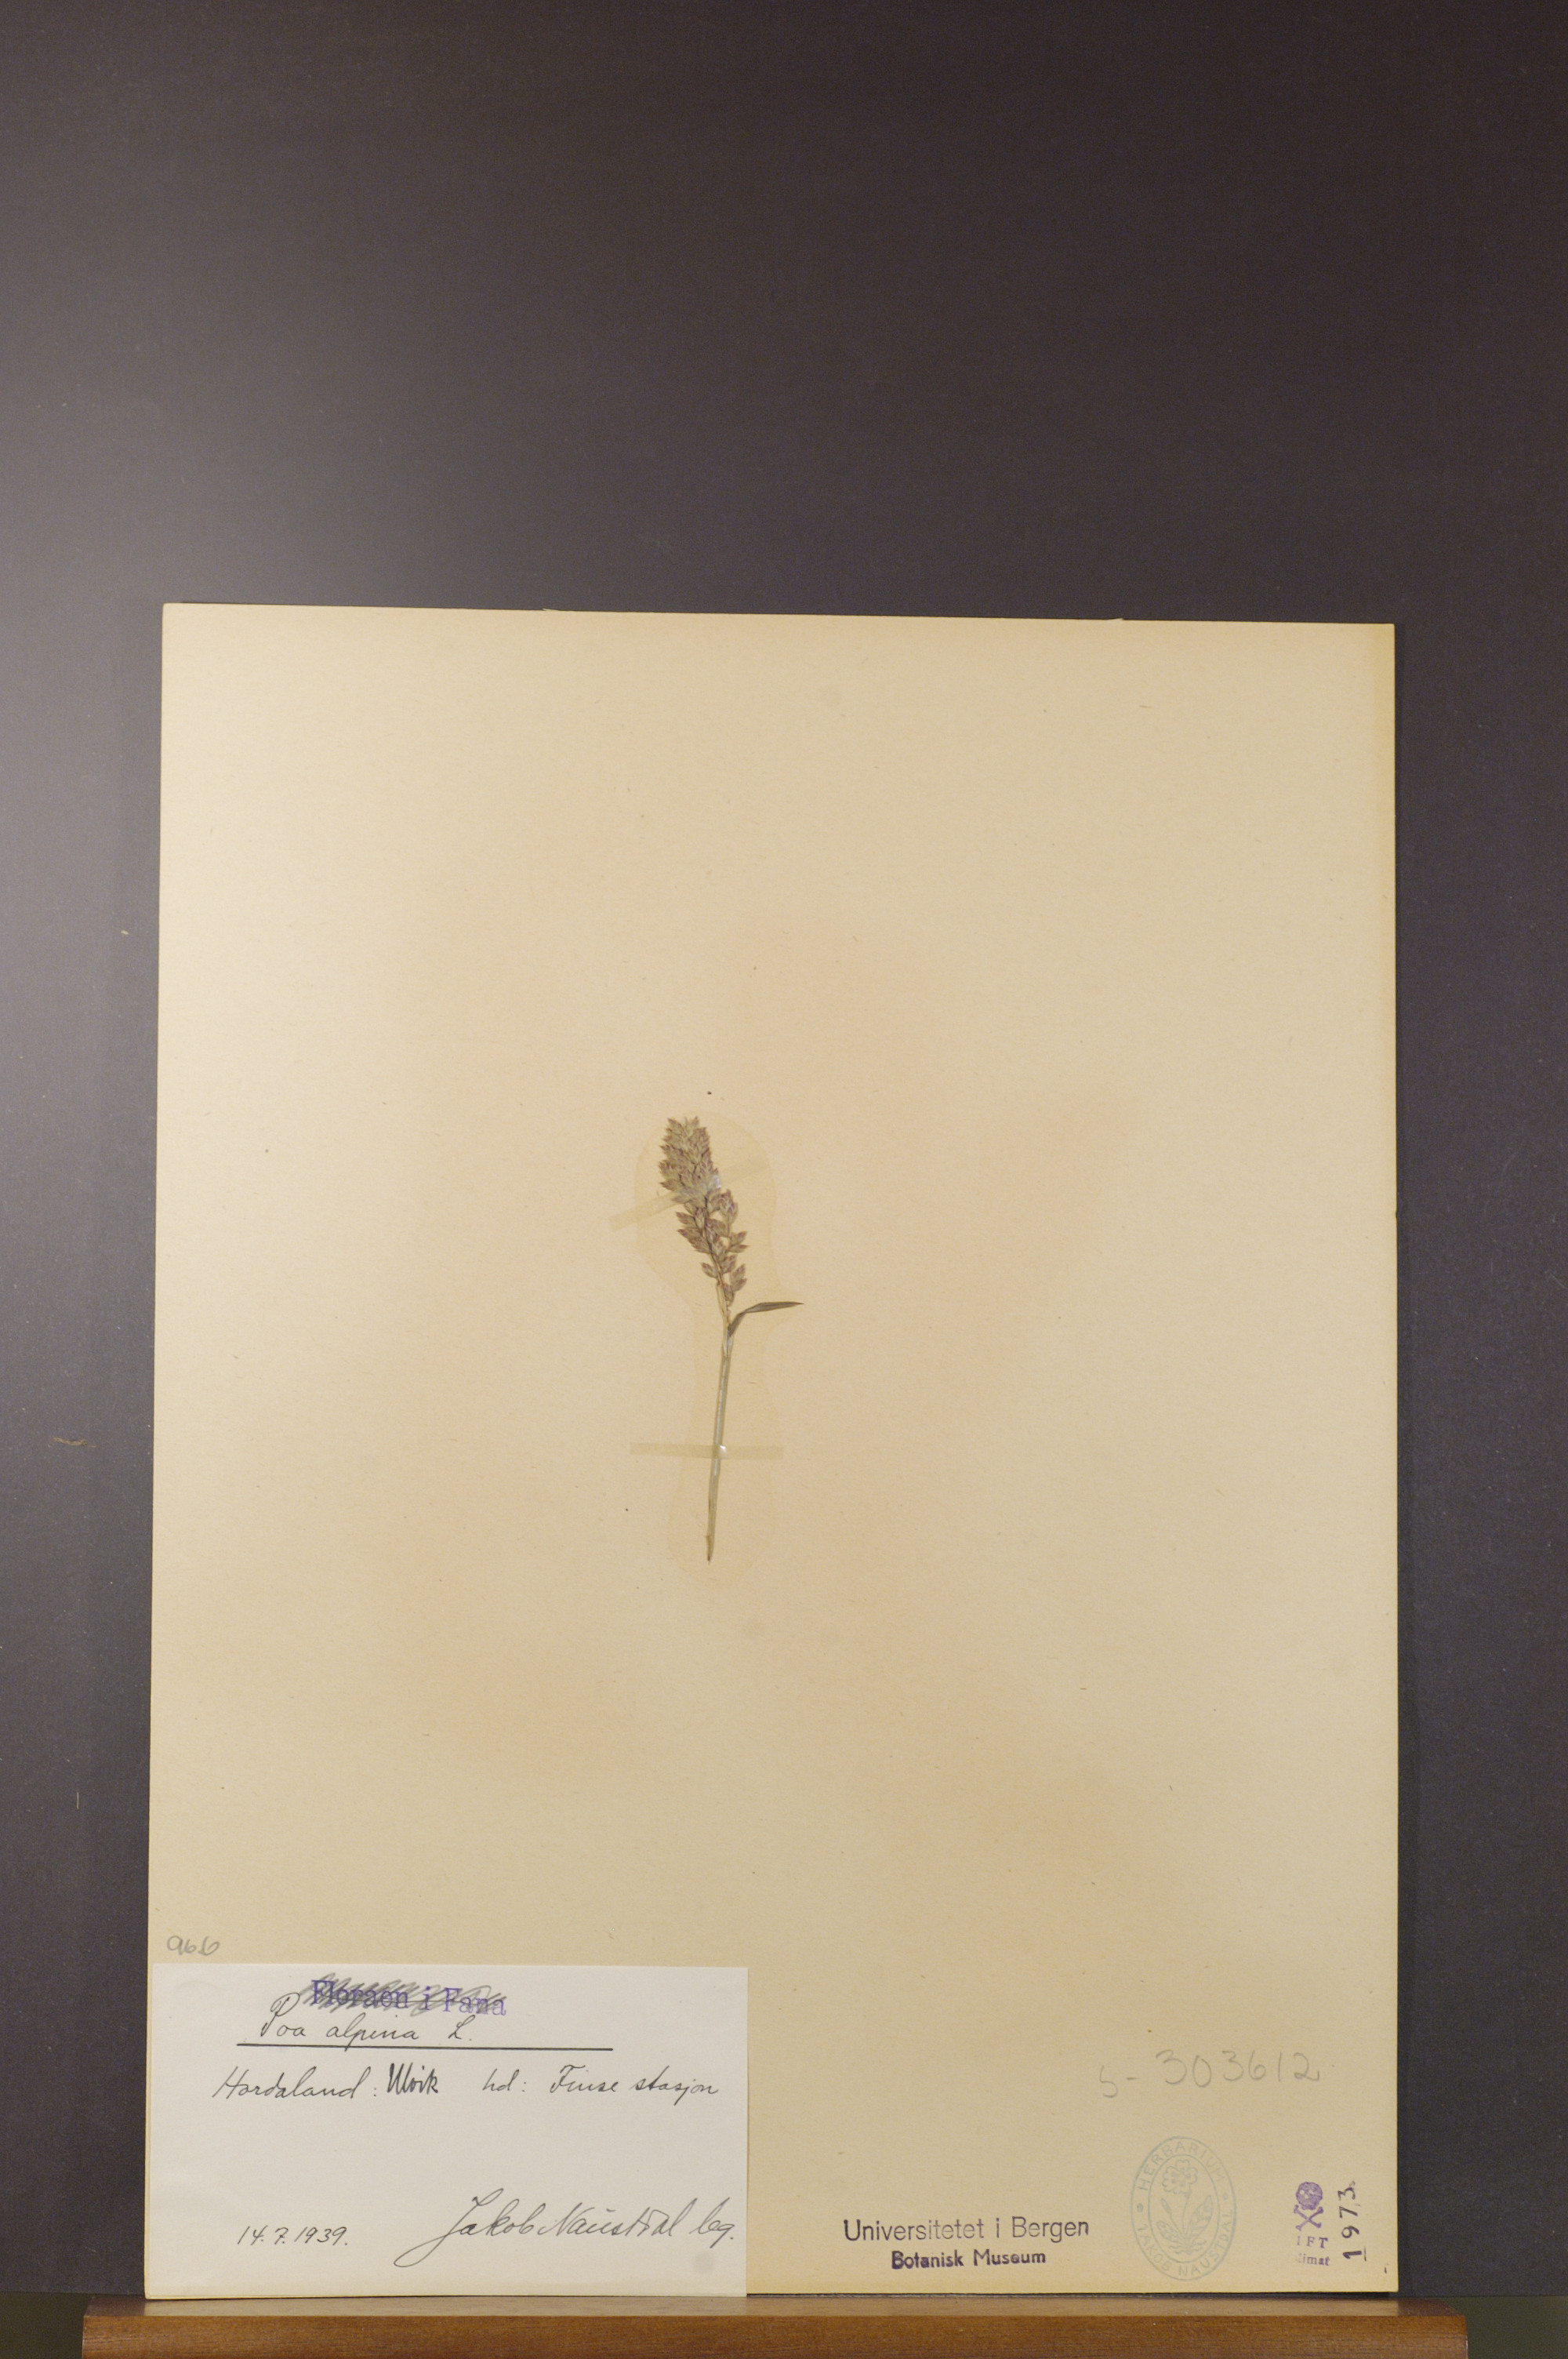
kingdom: Plantae
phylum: Tracheophyta
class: Liliopsida
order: Poales
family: Poaceae
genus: Poa
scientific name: Poa alpina
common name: Alpine bluegrass
